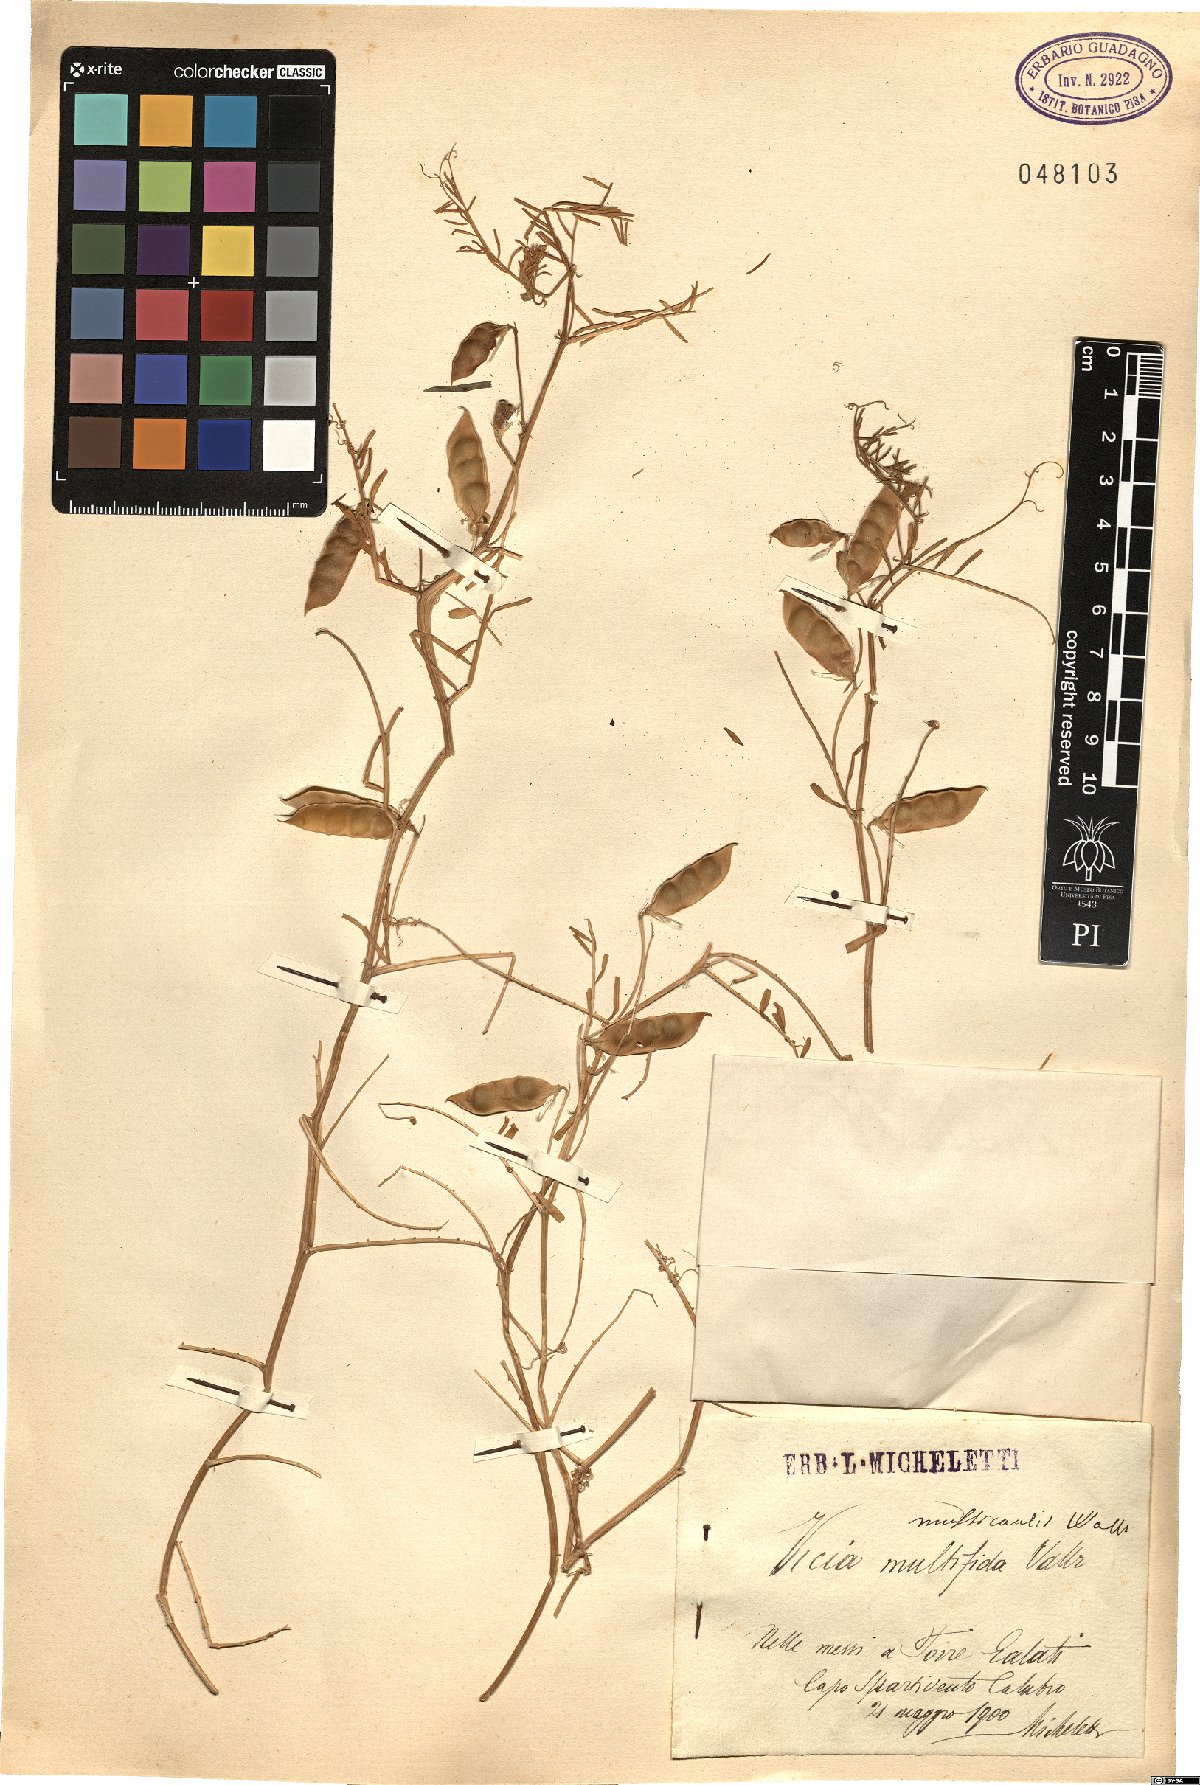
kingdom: Plantae
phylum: Tracheophyta
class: Magnoliopsida
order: Fabales
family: Fabaceae
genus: Vicia
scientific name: Vicia articulata
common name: Monantha vetch
